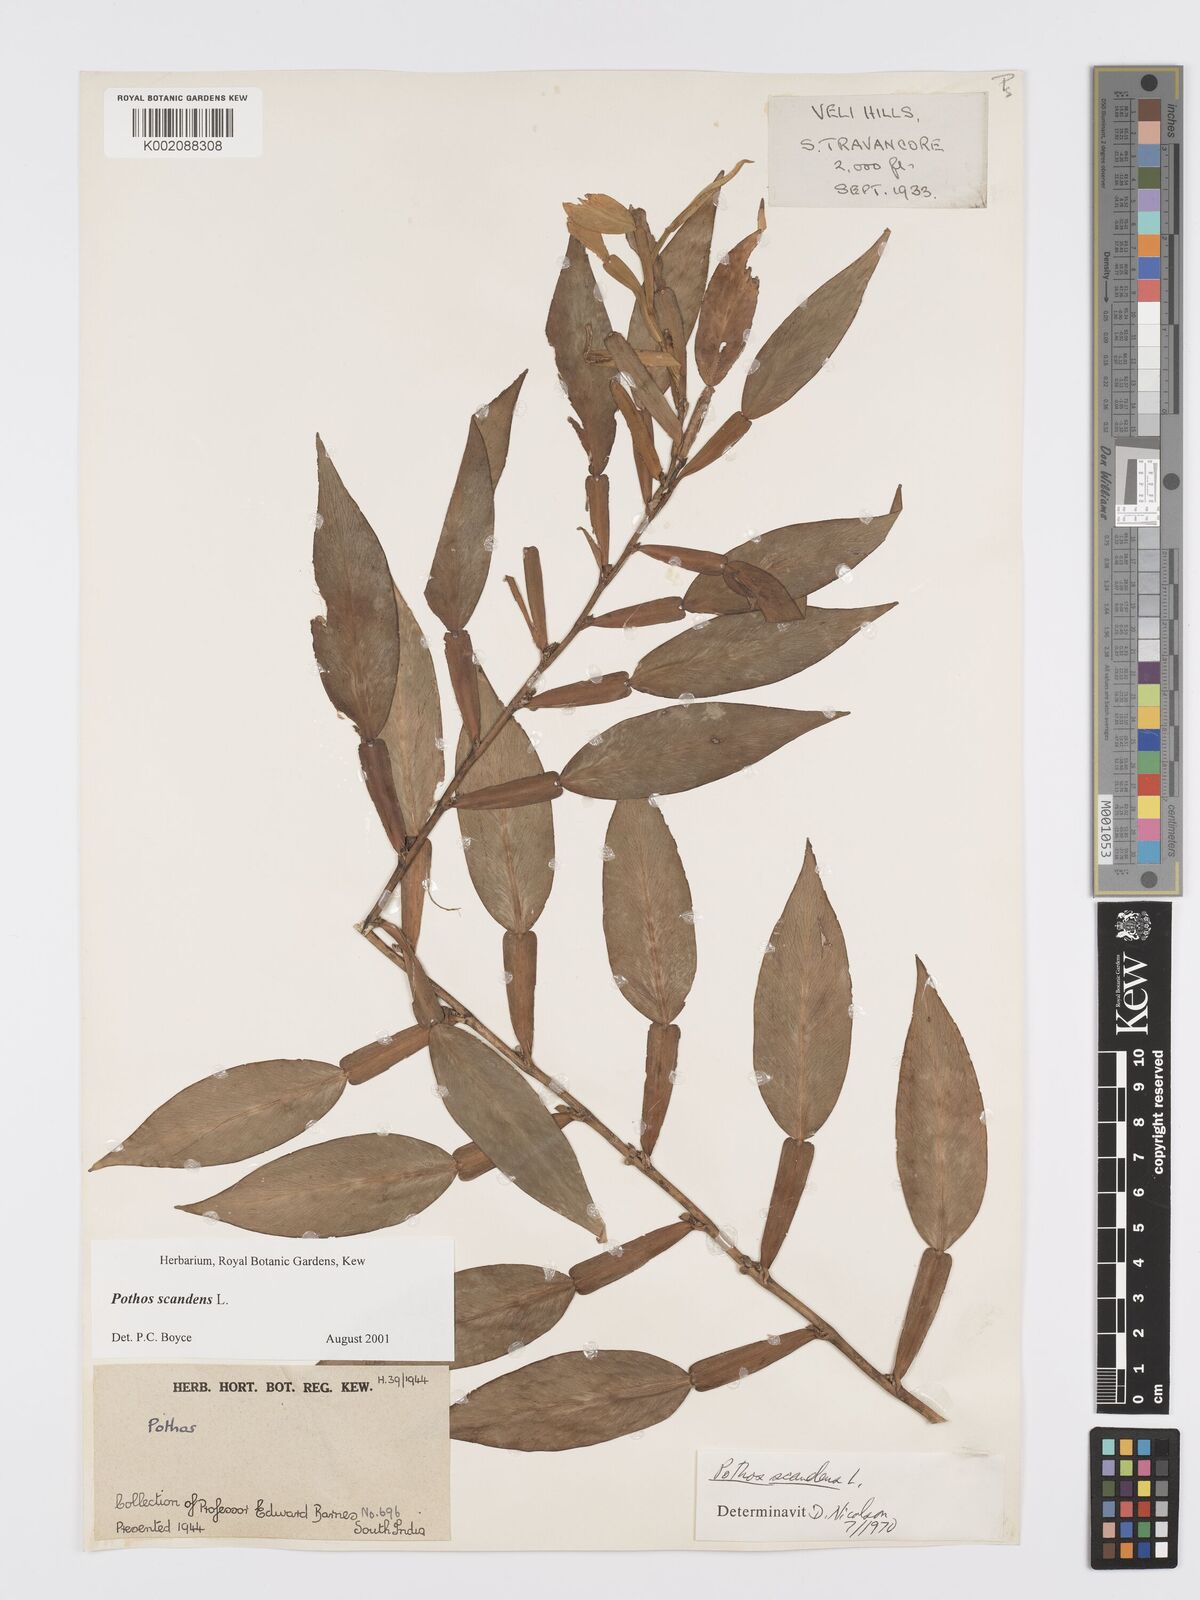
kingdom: Plantae
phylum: Tracheophyta
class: Liliopsida
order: Alismatales
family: Araceae
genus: Pothos
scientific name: Pothos scandens
